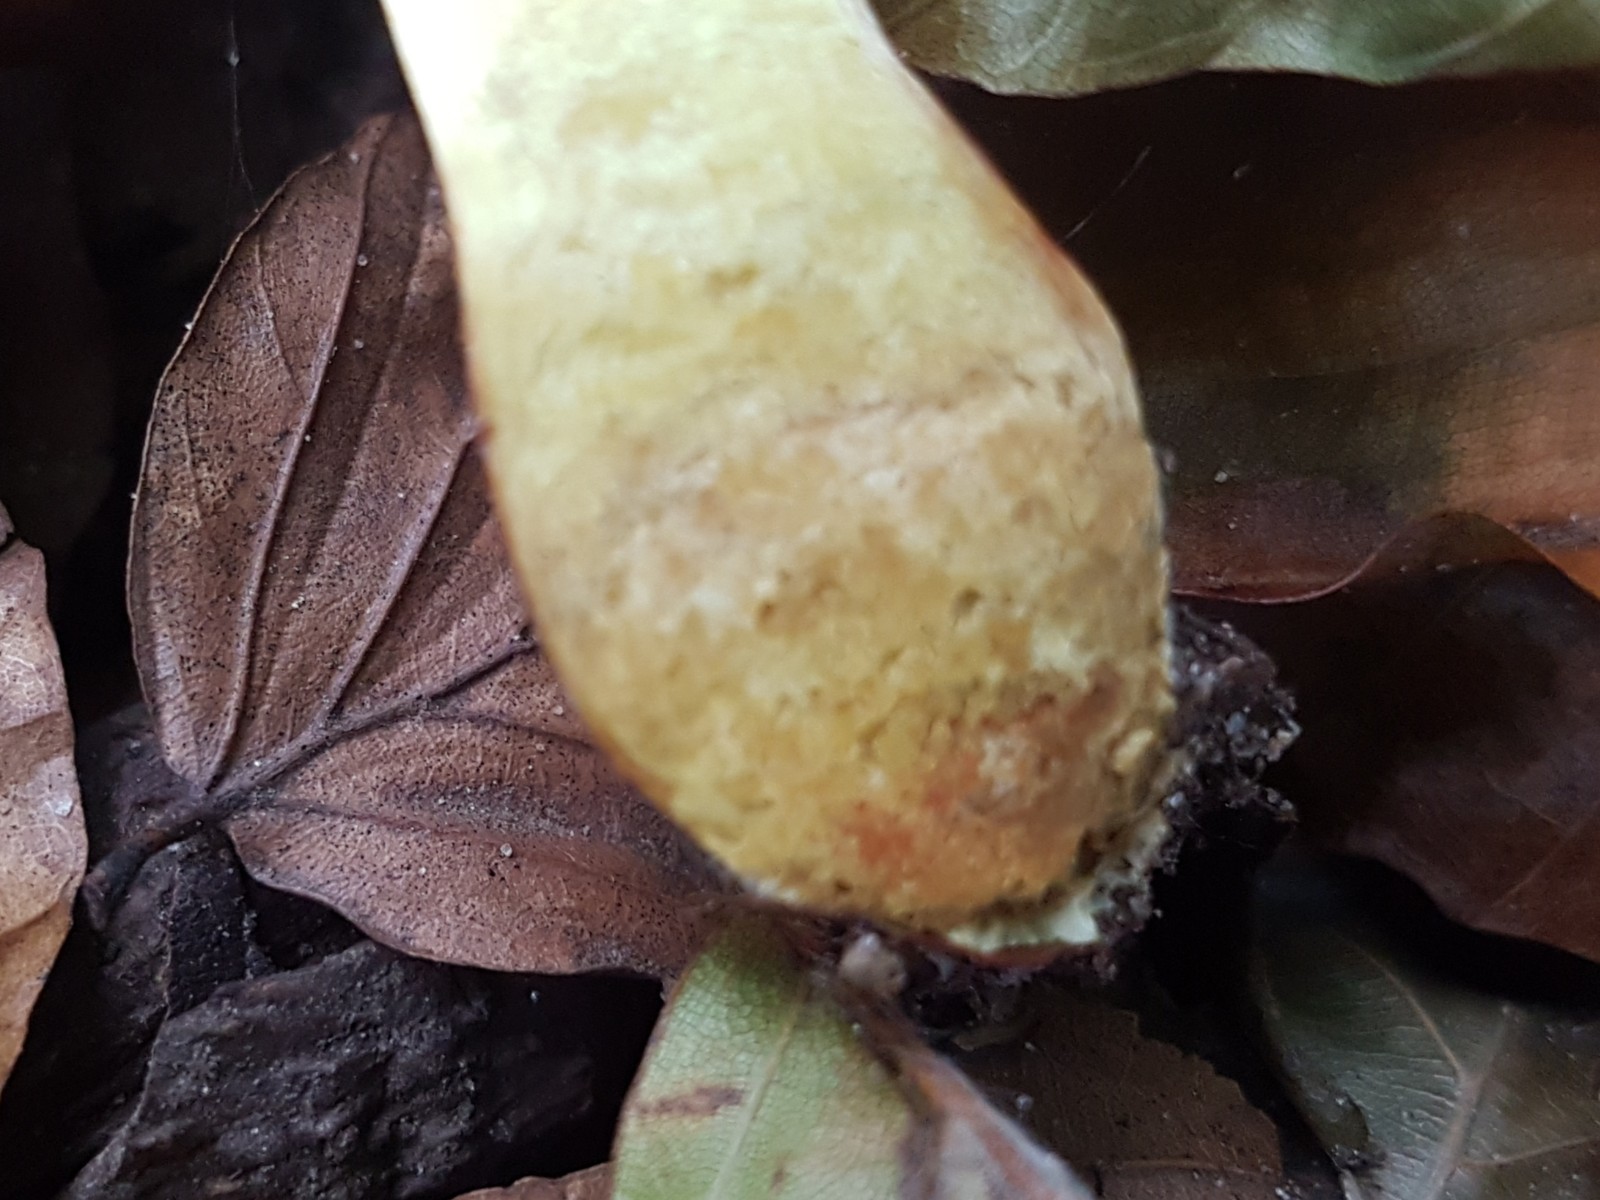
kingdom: Fungi
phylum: Basidiomycota
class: Agaricomycetes
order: Boletales
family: Boletaceae
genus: Hortiboletus
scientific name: Hortiboletus engelii
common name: fersken-rørhat
